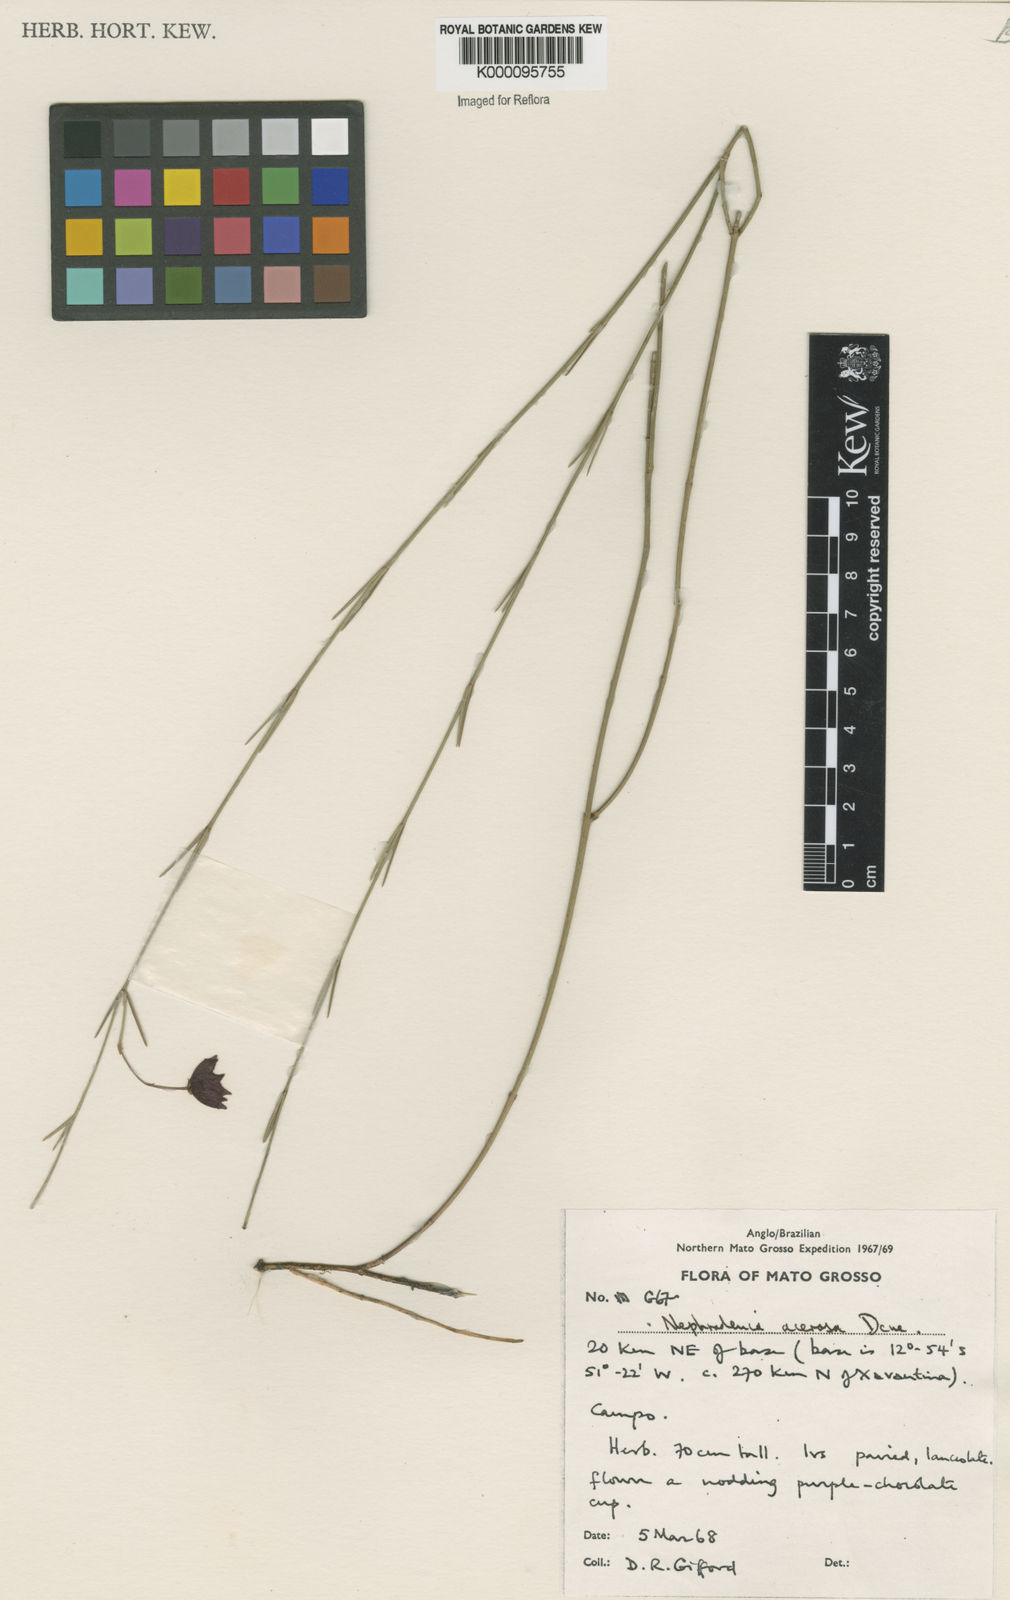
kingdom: Plantae
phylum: Tracheophyta
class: Magnoliopsida
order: Gentianales
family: Apocynaceae
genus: Nephradenia
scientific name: Nephradenia acerosa
